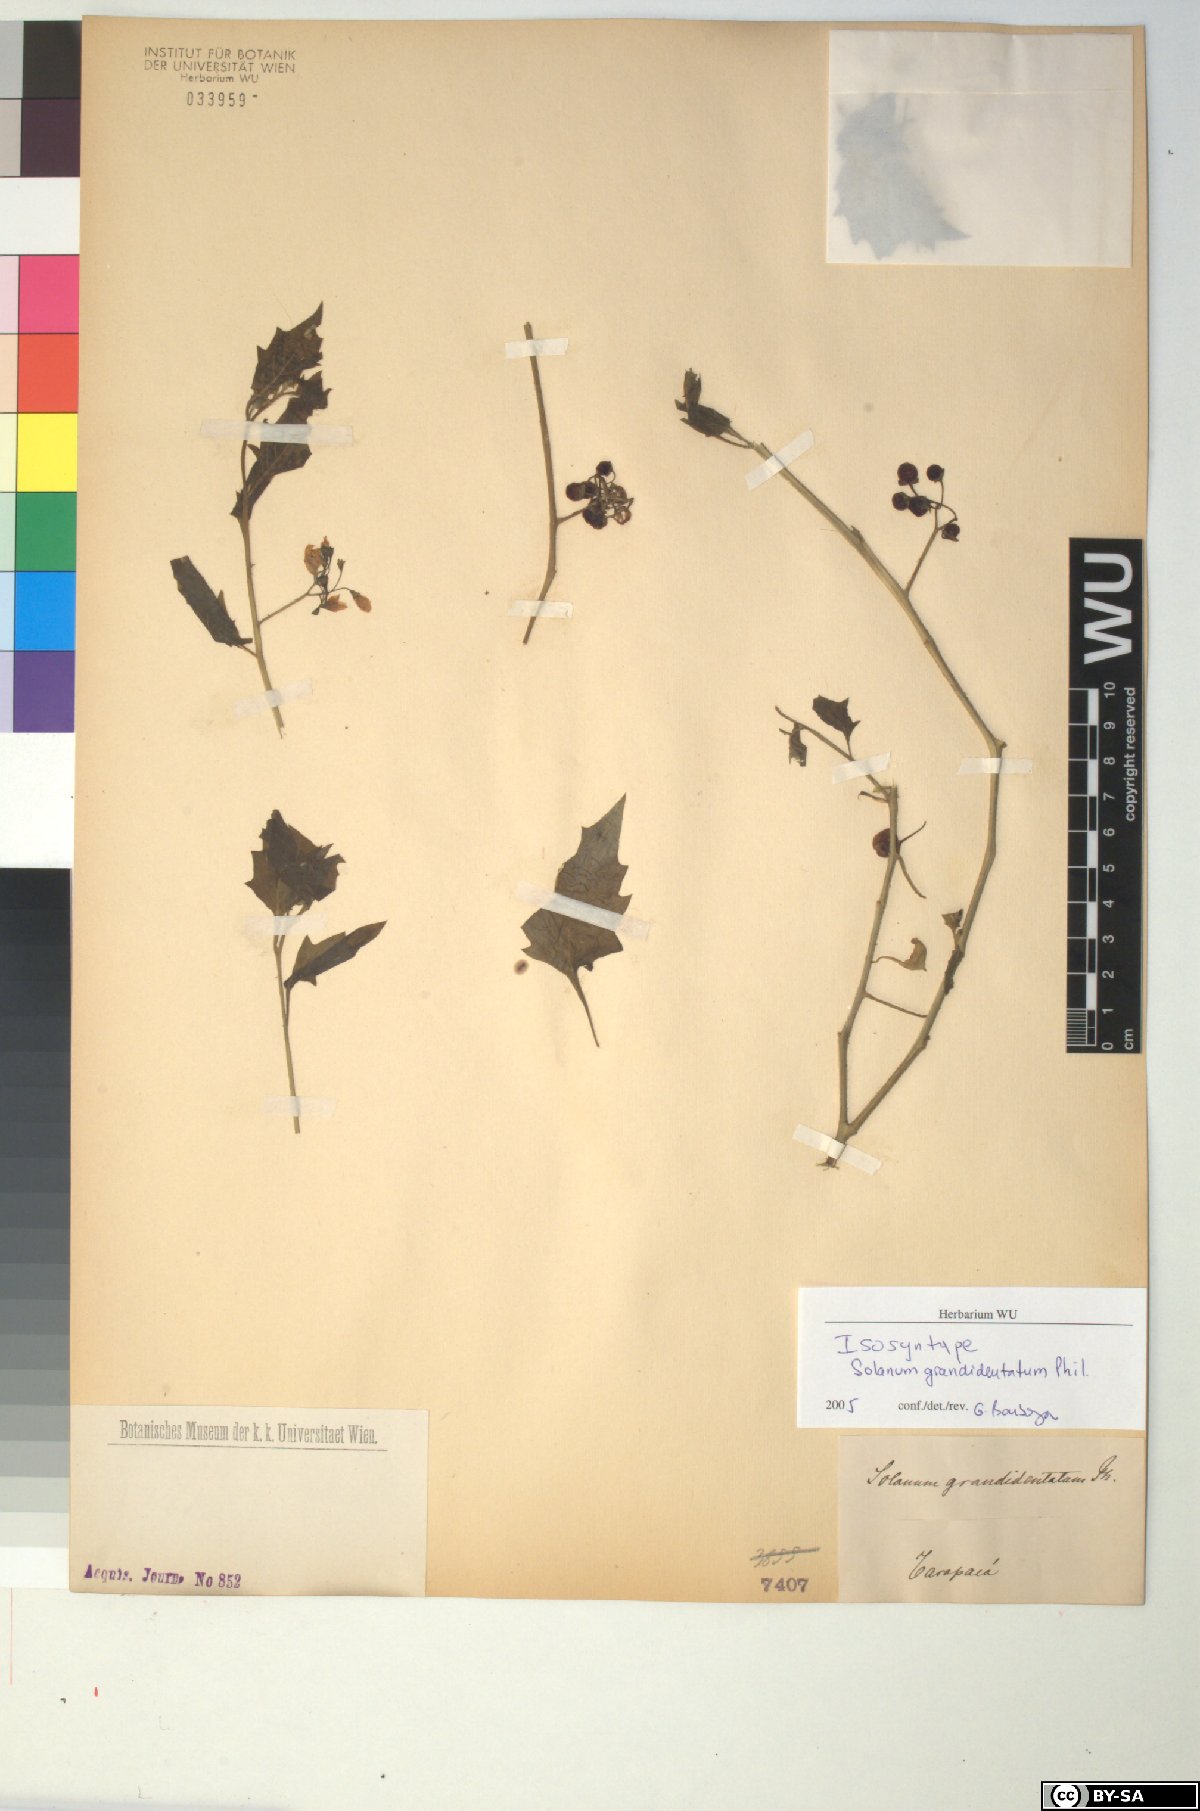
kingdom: Plantae
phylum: Tracheophyta
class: Magnoliopsida
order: Solanales
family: Solanaceae
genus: Solanum
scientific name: Solanum grandidentatum
